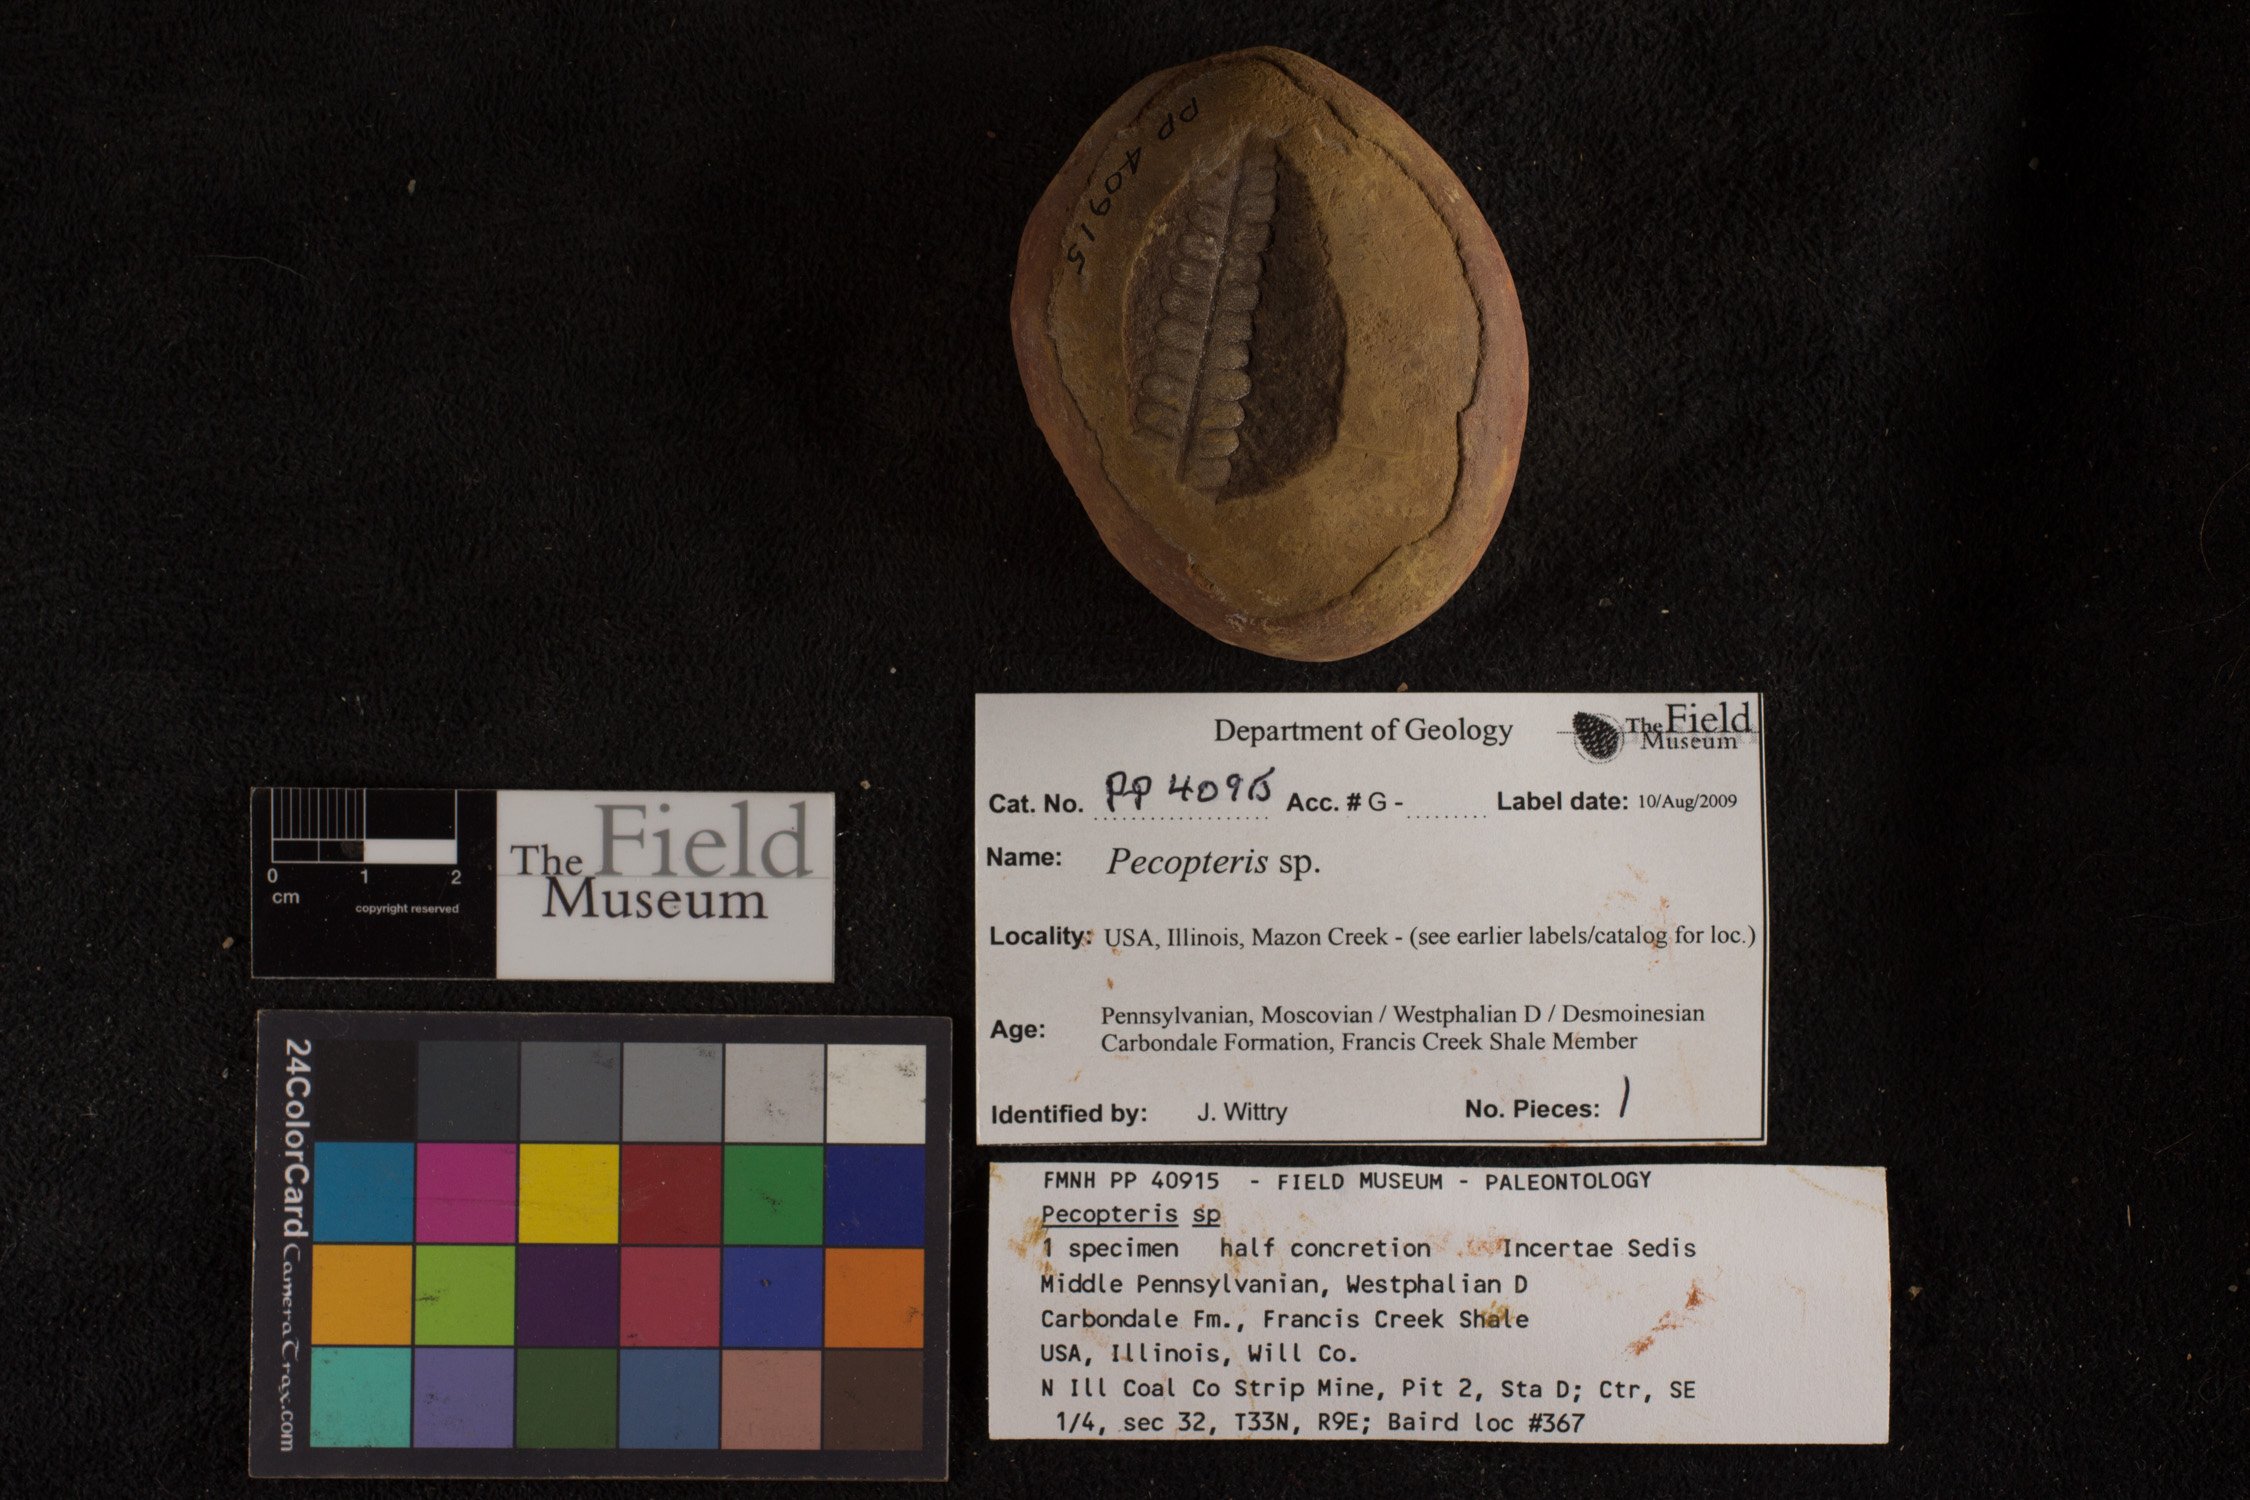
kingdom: Plantae
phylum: Tracheophyta
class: Polypodiopsida
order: Marattiales
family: Asterothecaceae
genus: Pecopteris
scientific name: Pecopteris
